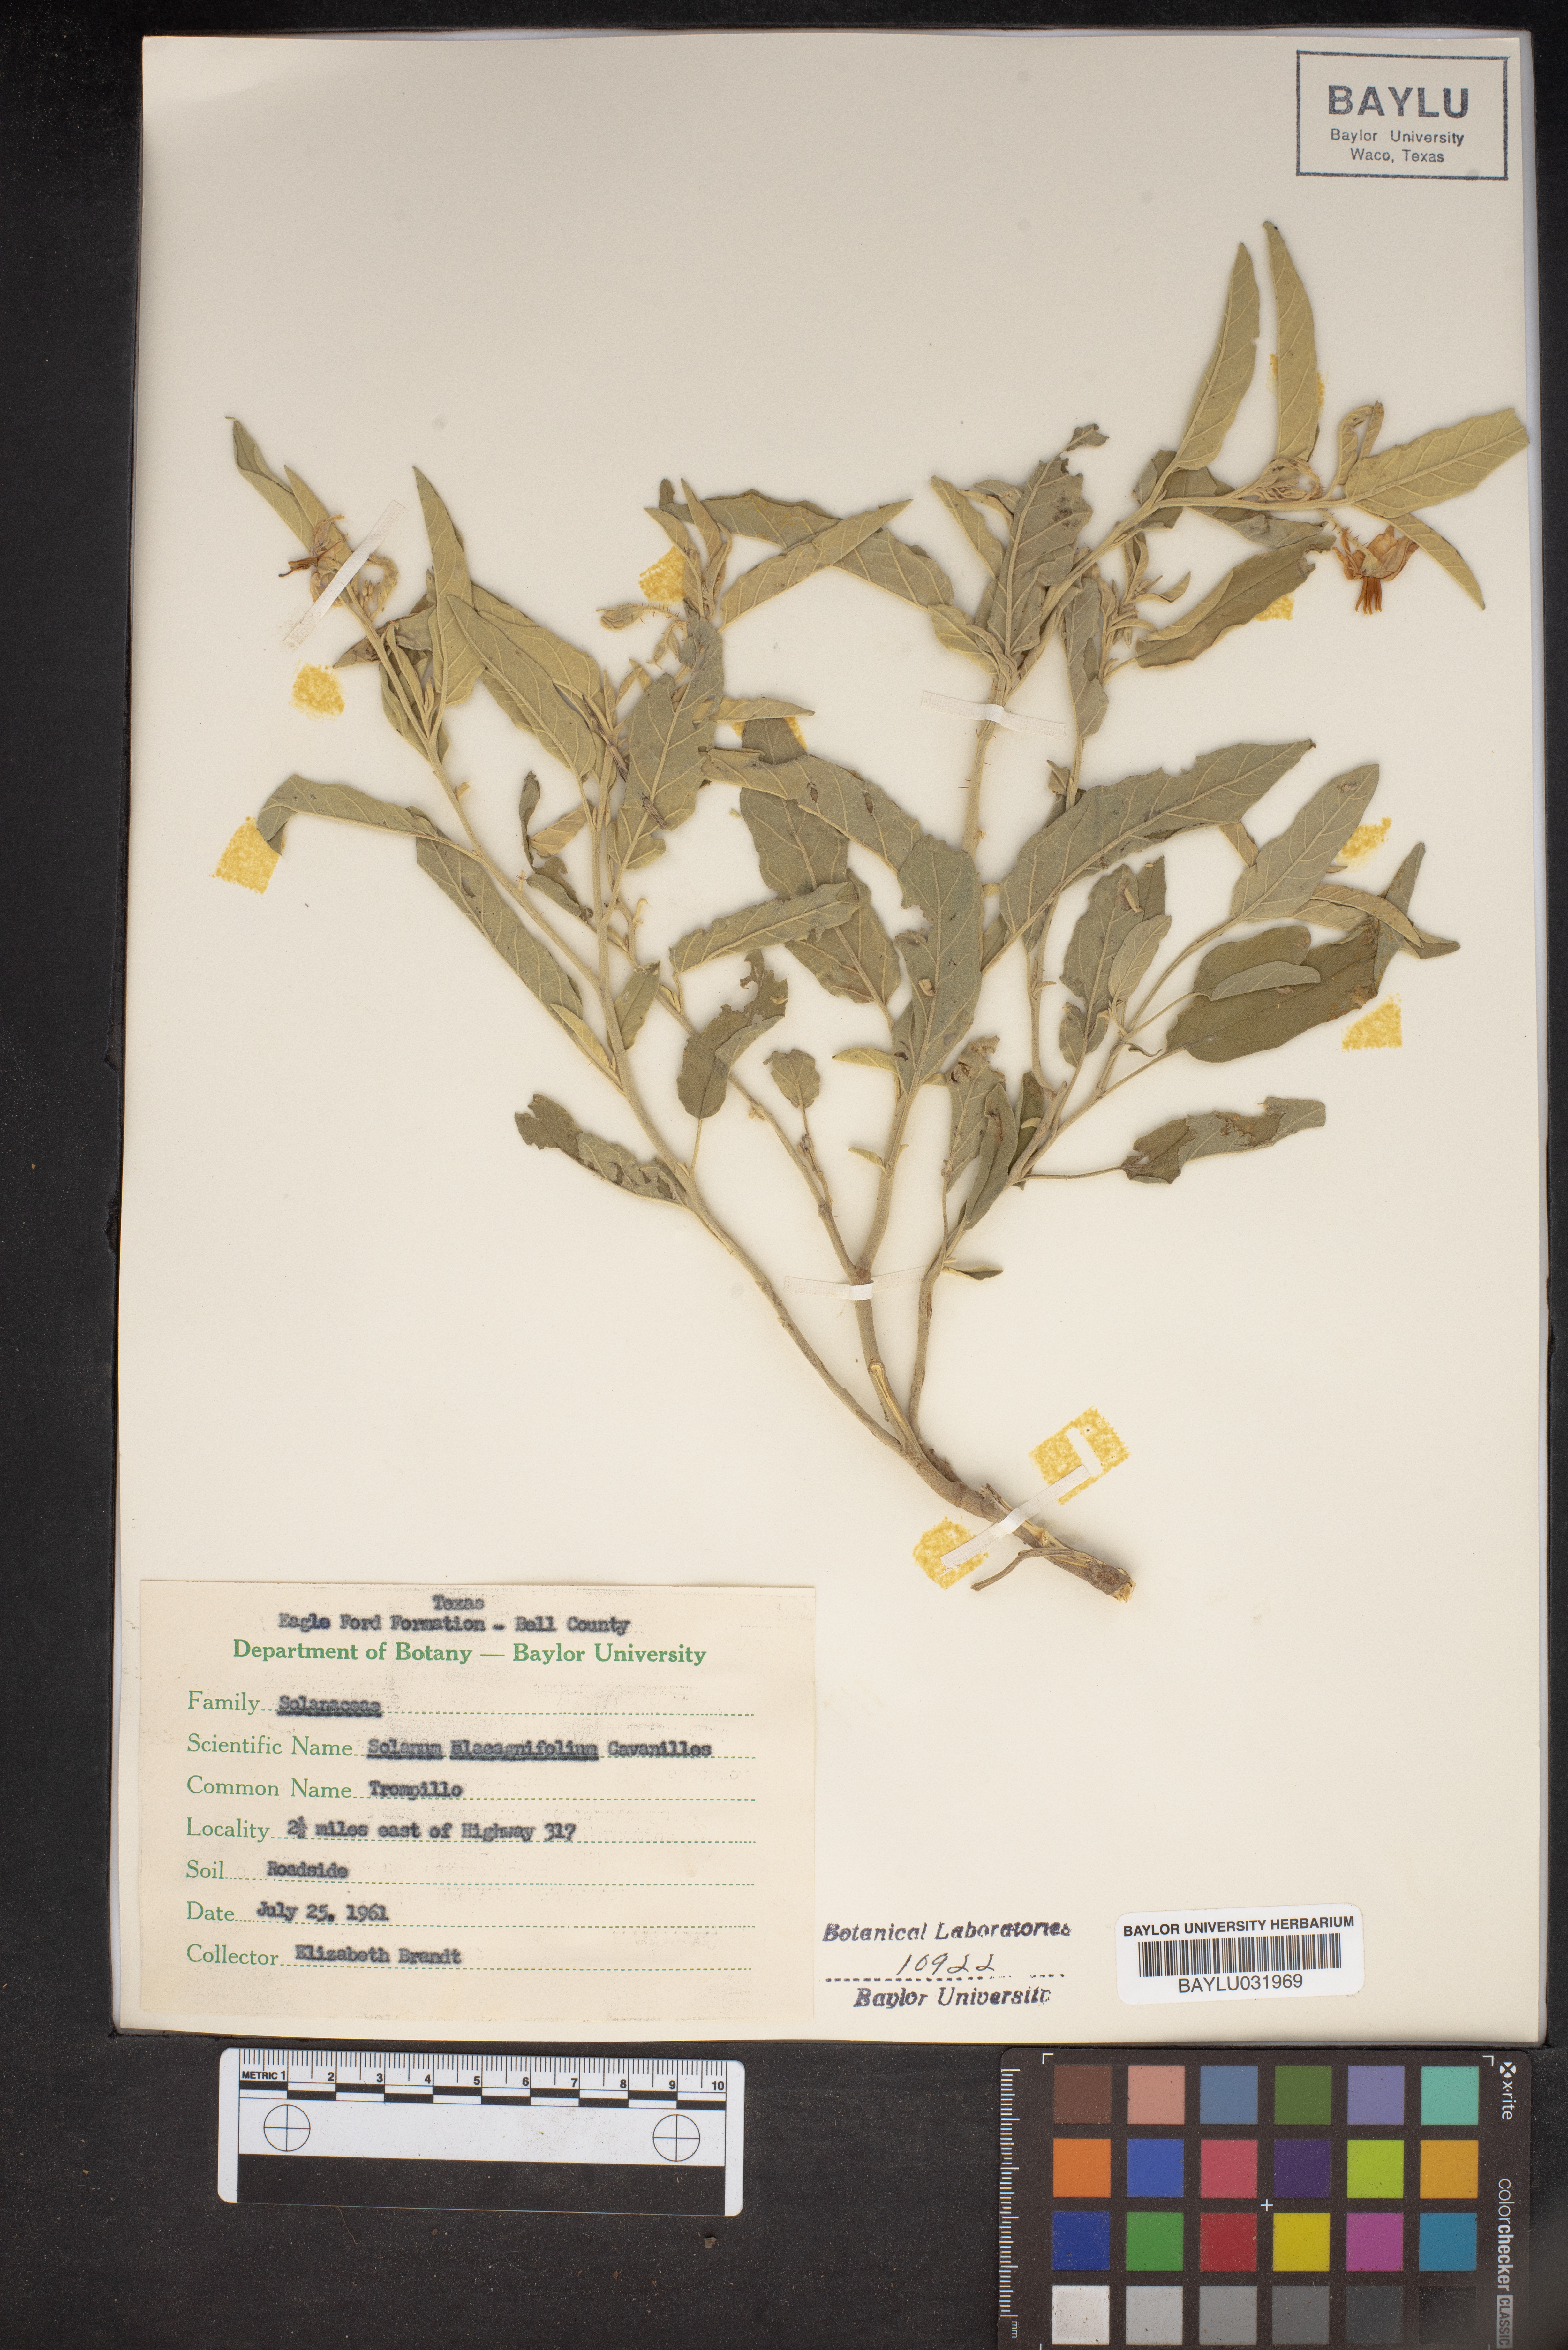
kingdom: Plantae
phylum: Tracheophyta
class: Magnoliopsida
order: Solanales
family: Solanaceae
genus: Solanum
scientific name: Solanum elaeagnifolium
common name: Silverleaf nightshade
